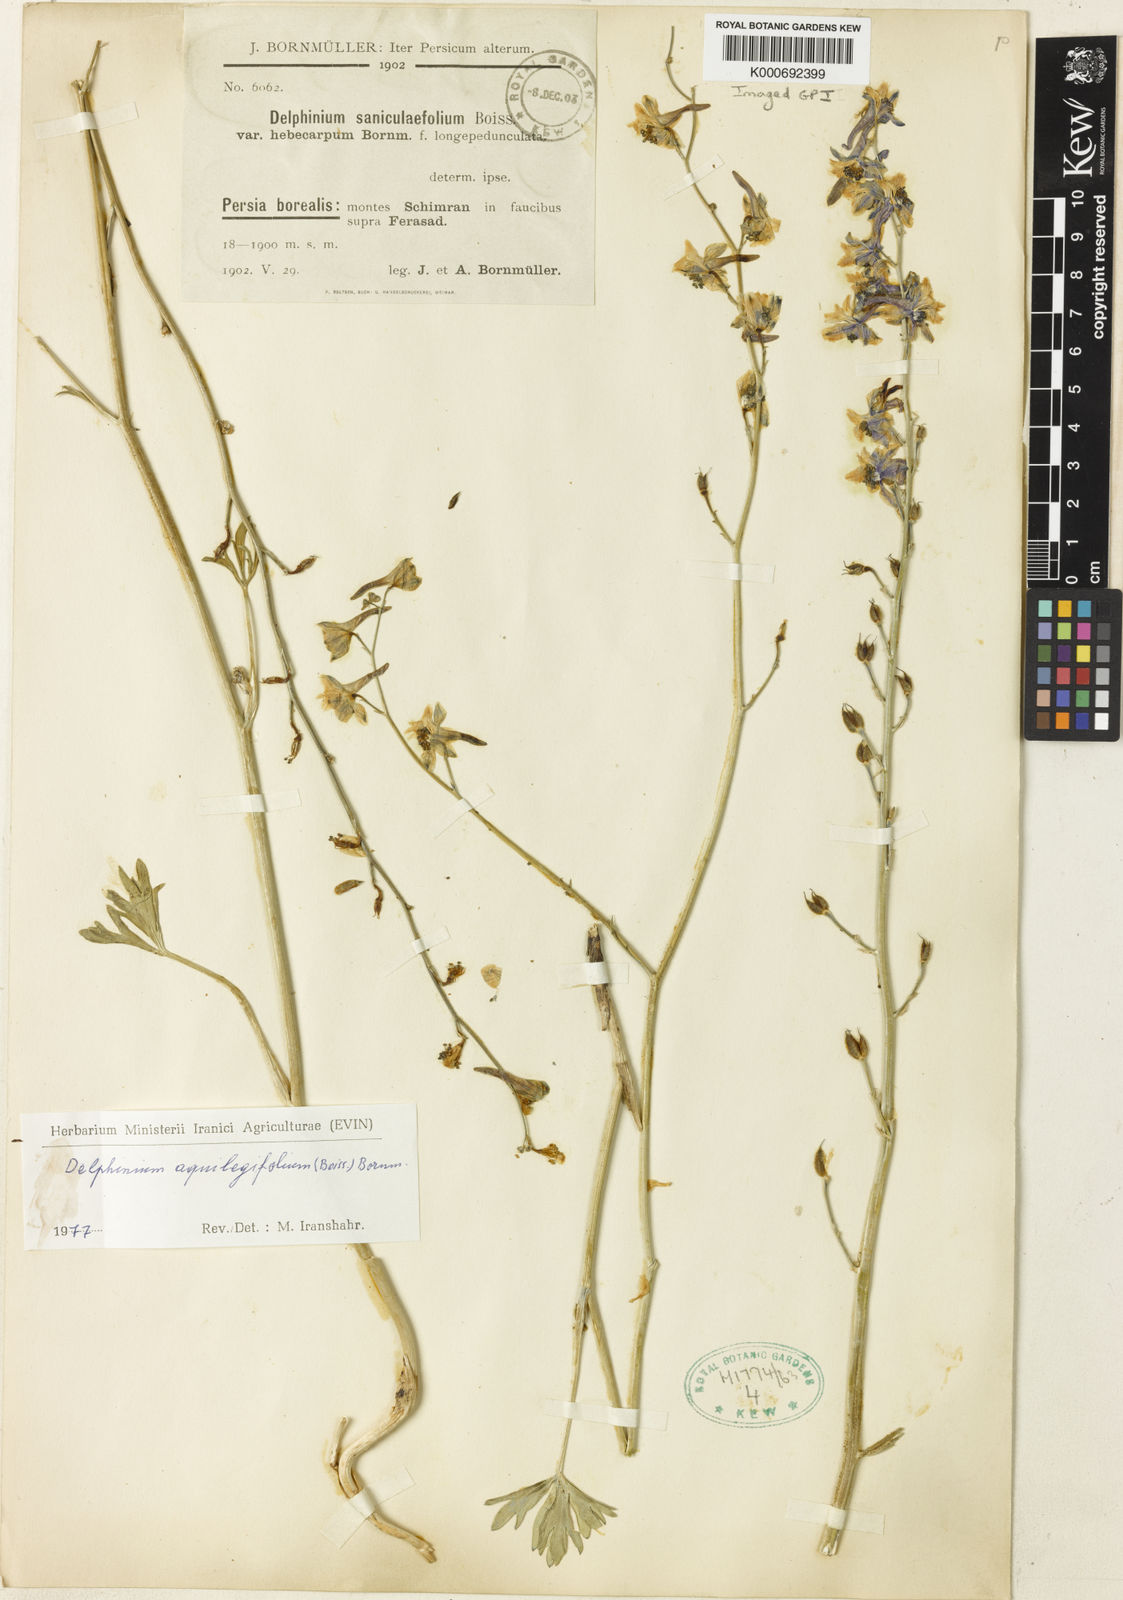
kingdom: Plantae
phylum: Tracheophyta
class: Magnoliopsida
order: Ranunculales
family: Ranunculaceae
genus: Delphinium
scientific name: Delphinium saniculifolium
